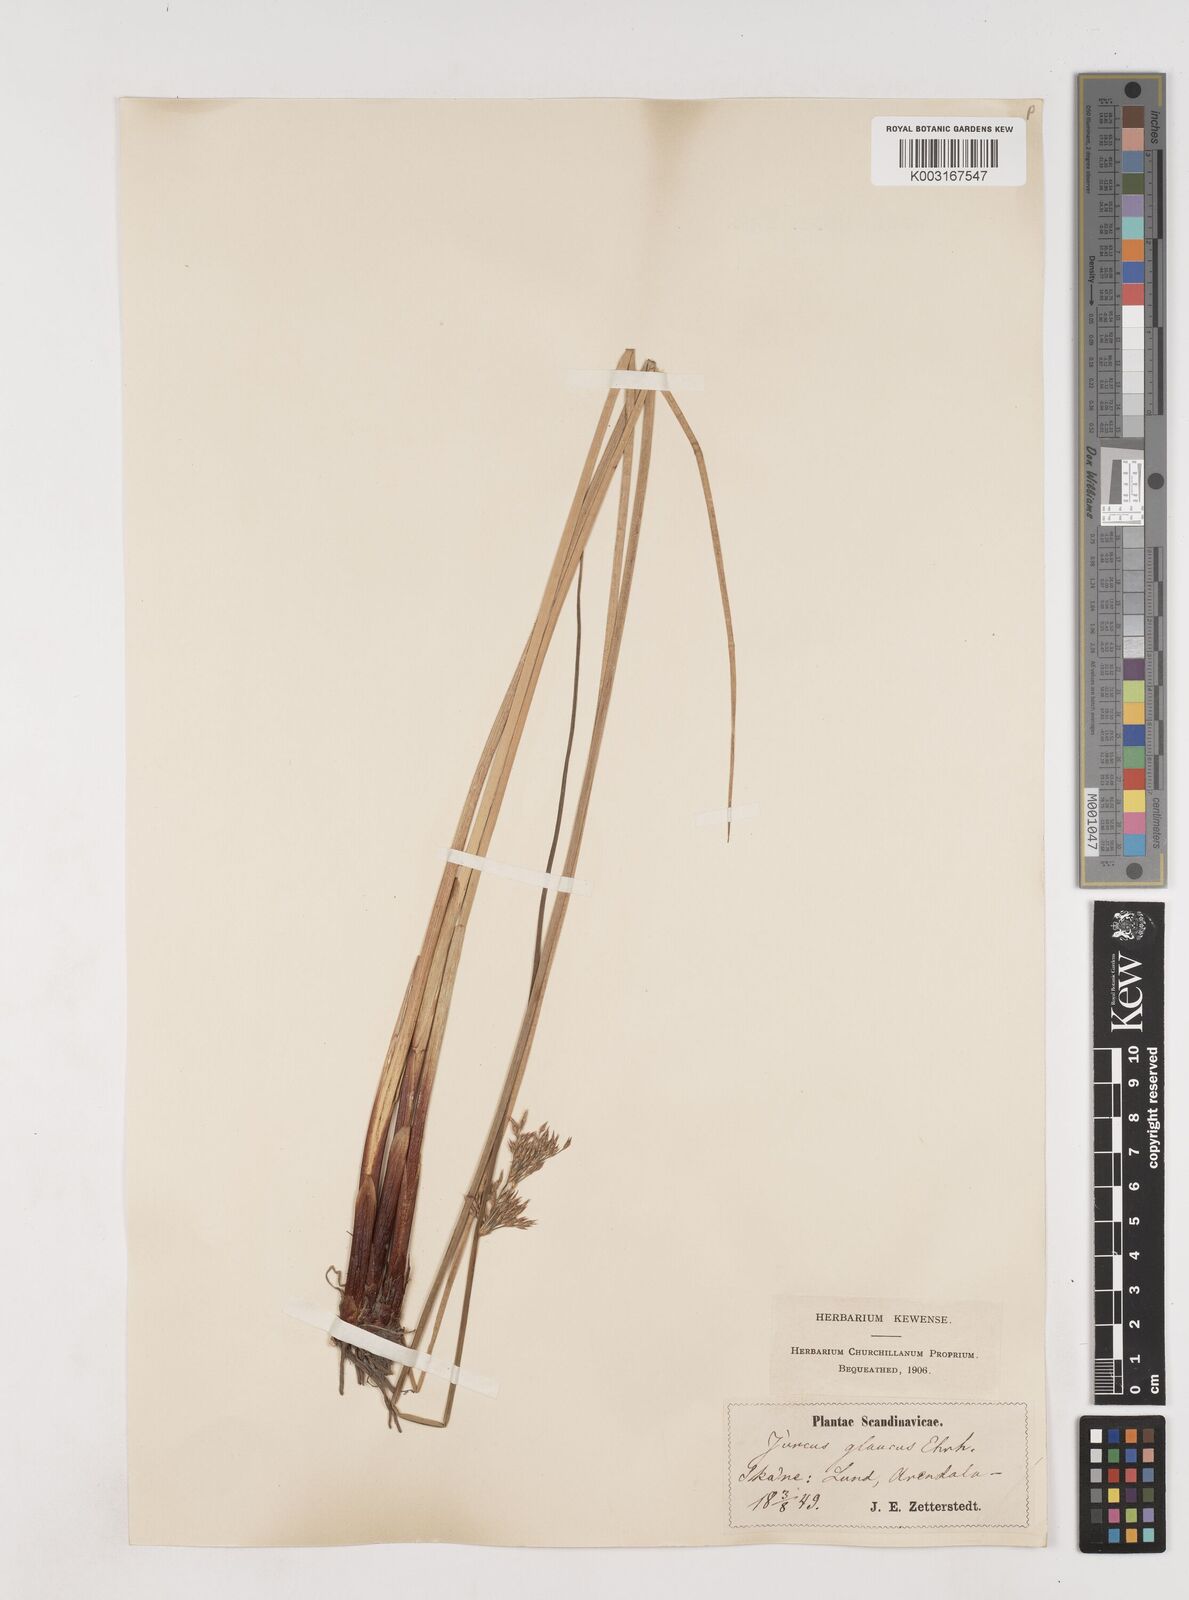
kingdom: Plantae
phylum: Tracheophyta
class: Liliopsida
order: Poales
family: Juncaceae
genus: Juncus
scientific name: Juncus inflexus
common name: Hard rush
